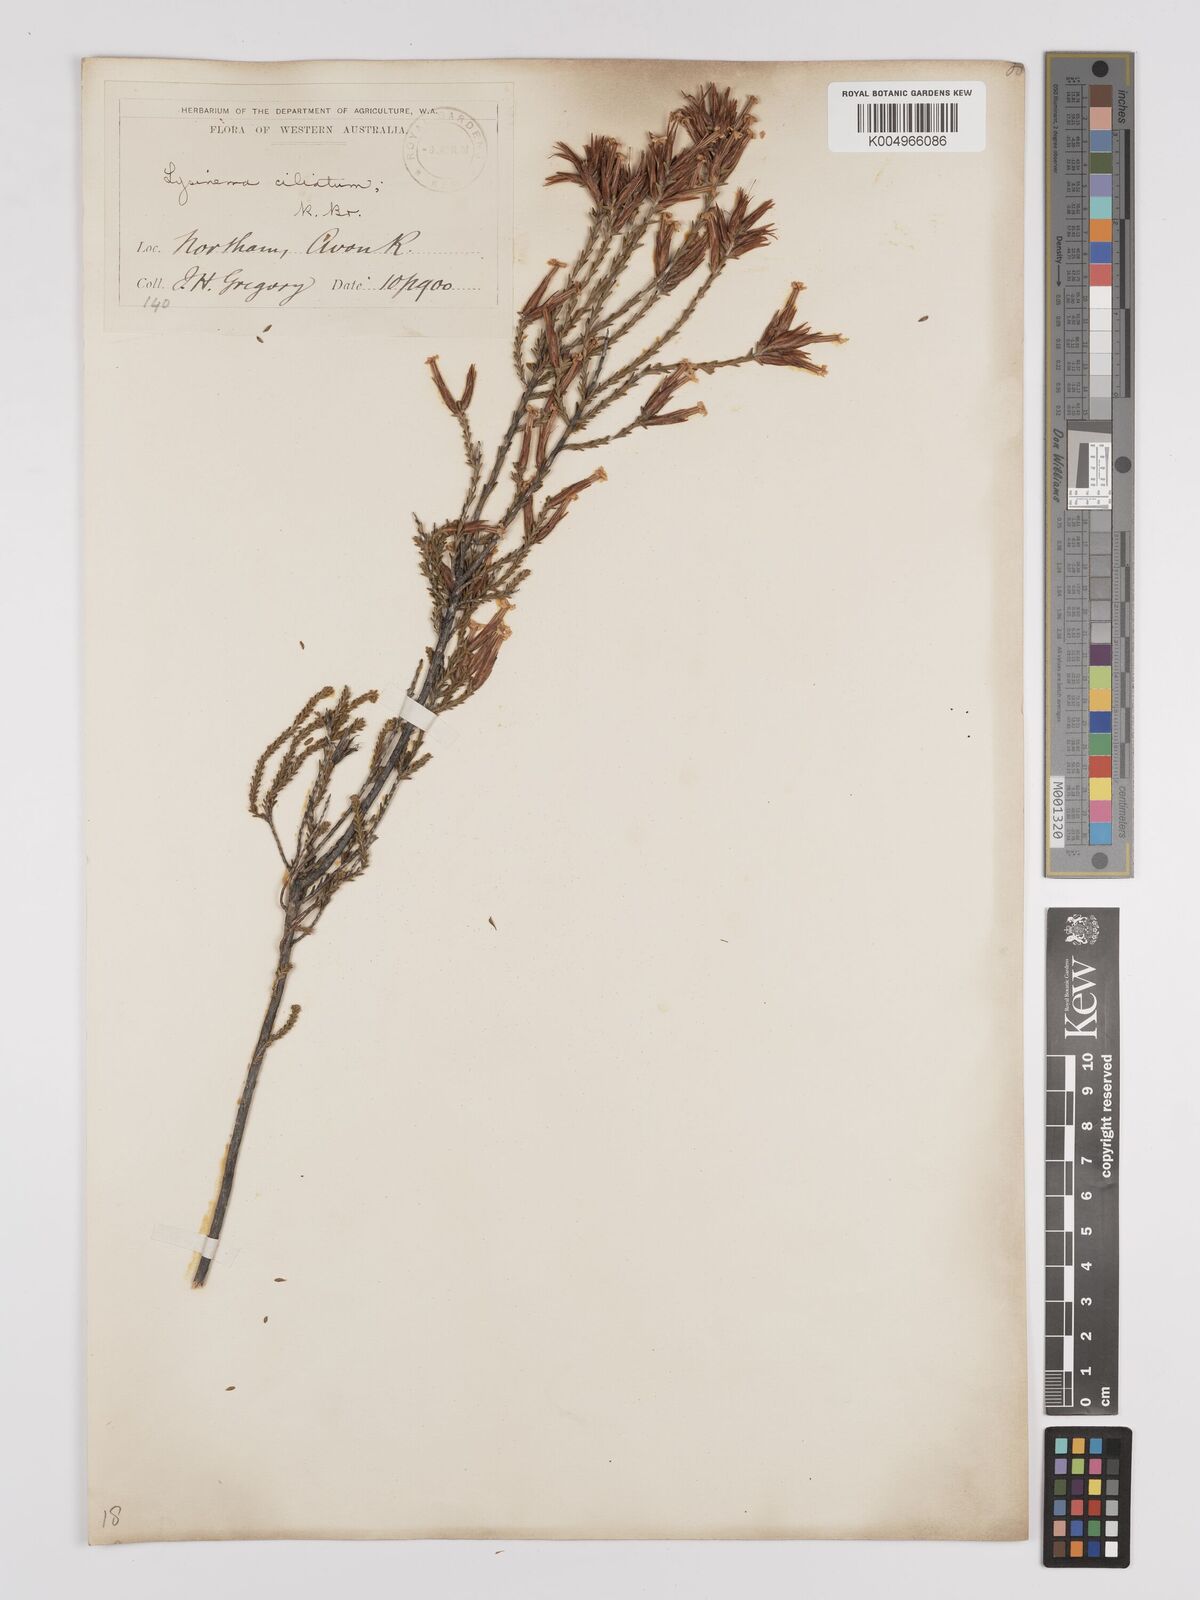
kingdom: Plantae
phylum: Tracheophyta
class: Magnoliopsida
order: Ericales
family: Ericaceae
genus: Lysinema
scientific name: Lysinema ciliatum
